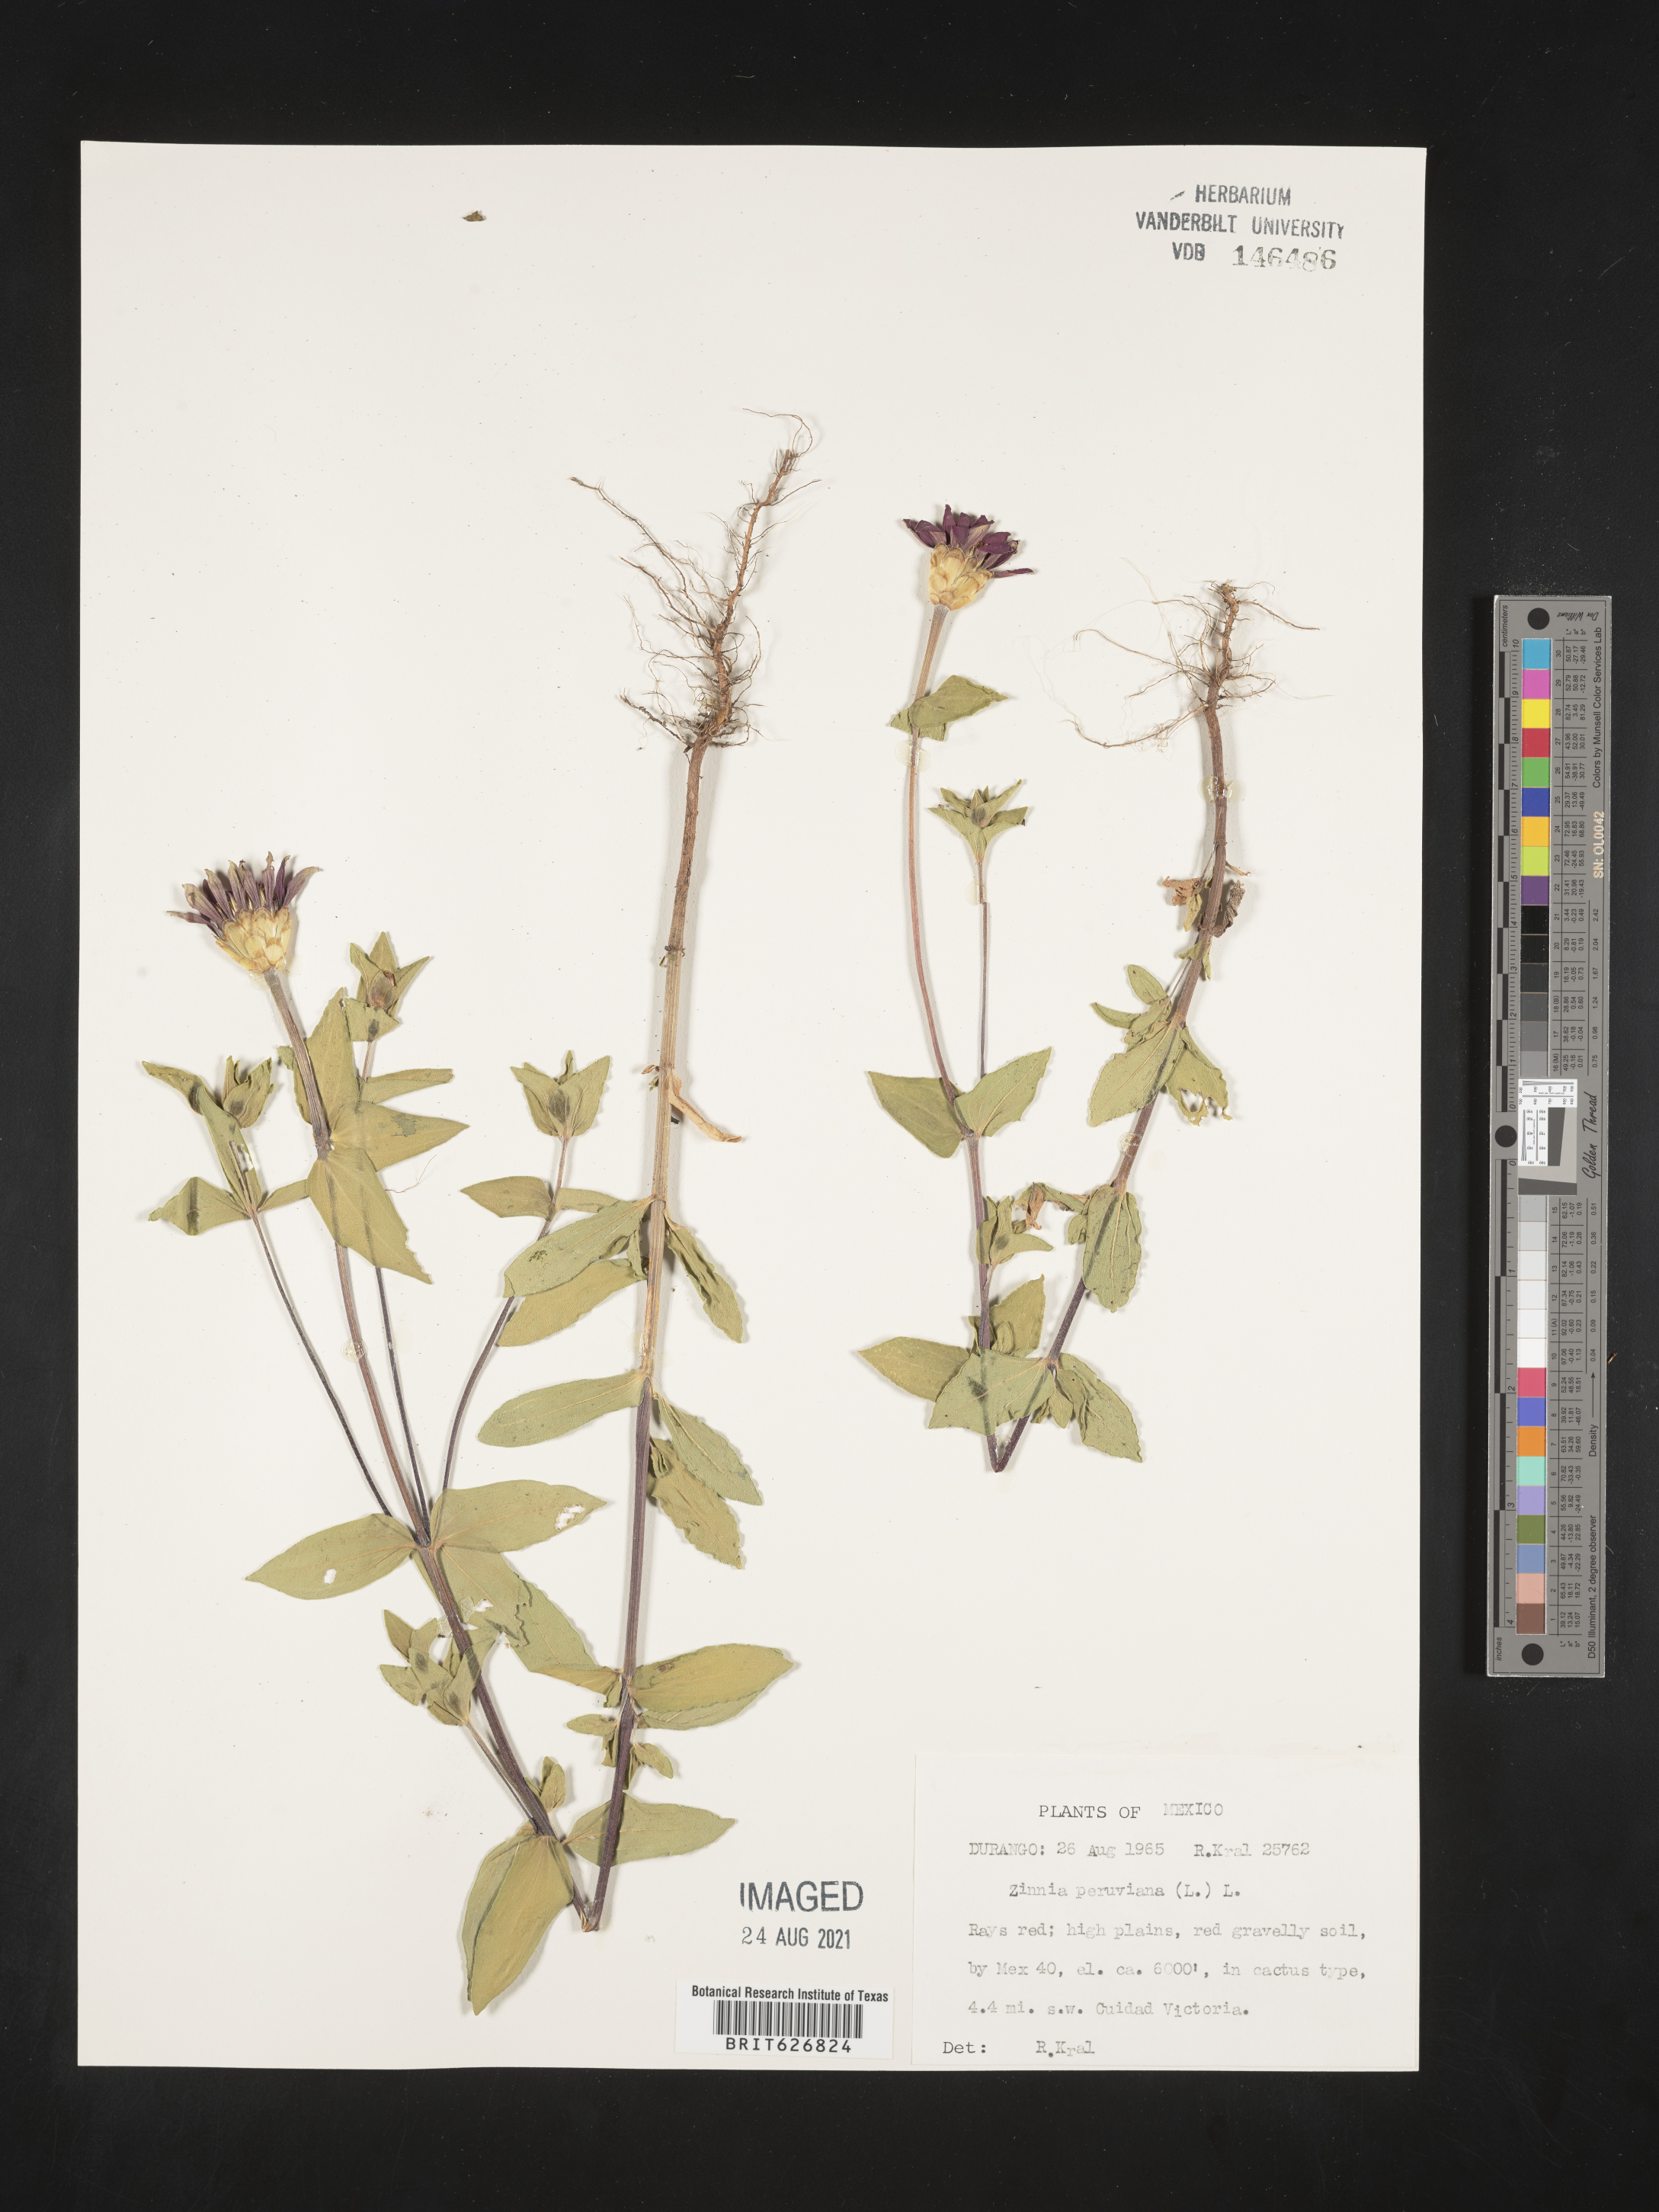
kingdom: Plantae
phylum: Tracheophyta
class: Magnoliopsida
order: Asterales
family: Asteraceae
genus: Zinnia
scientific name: Zinnia
